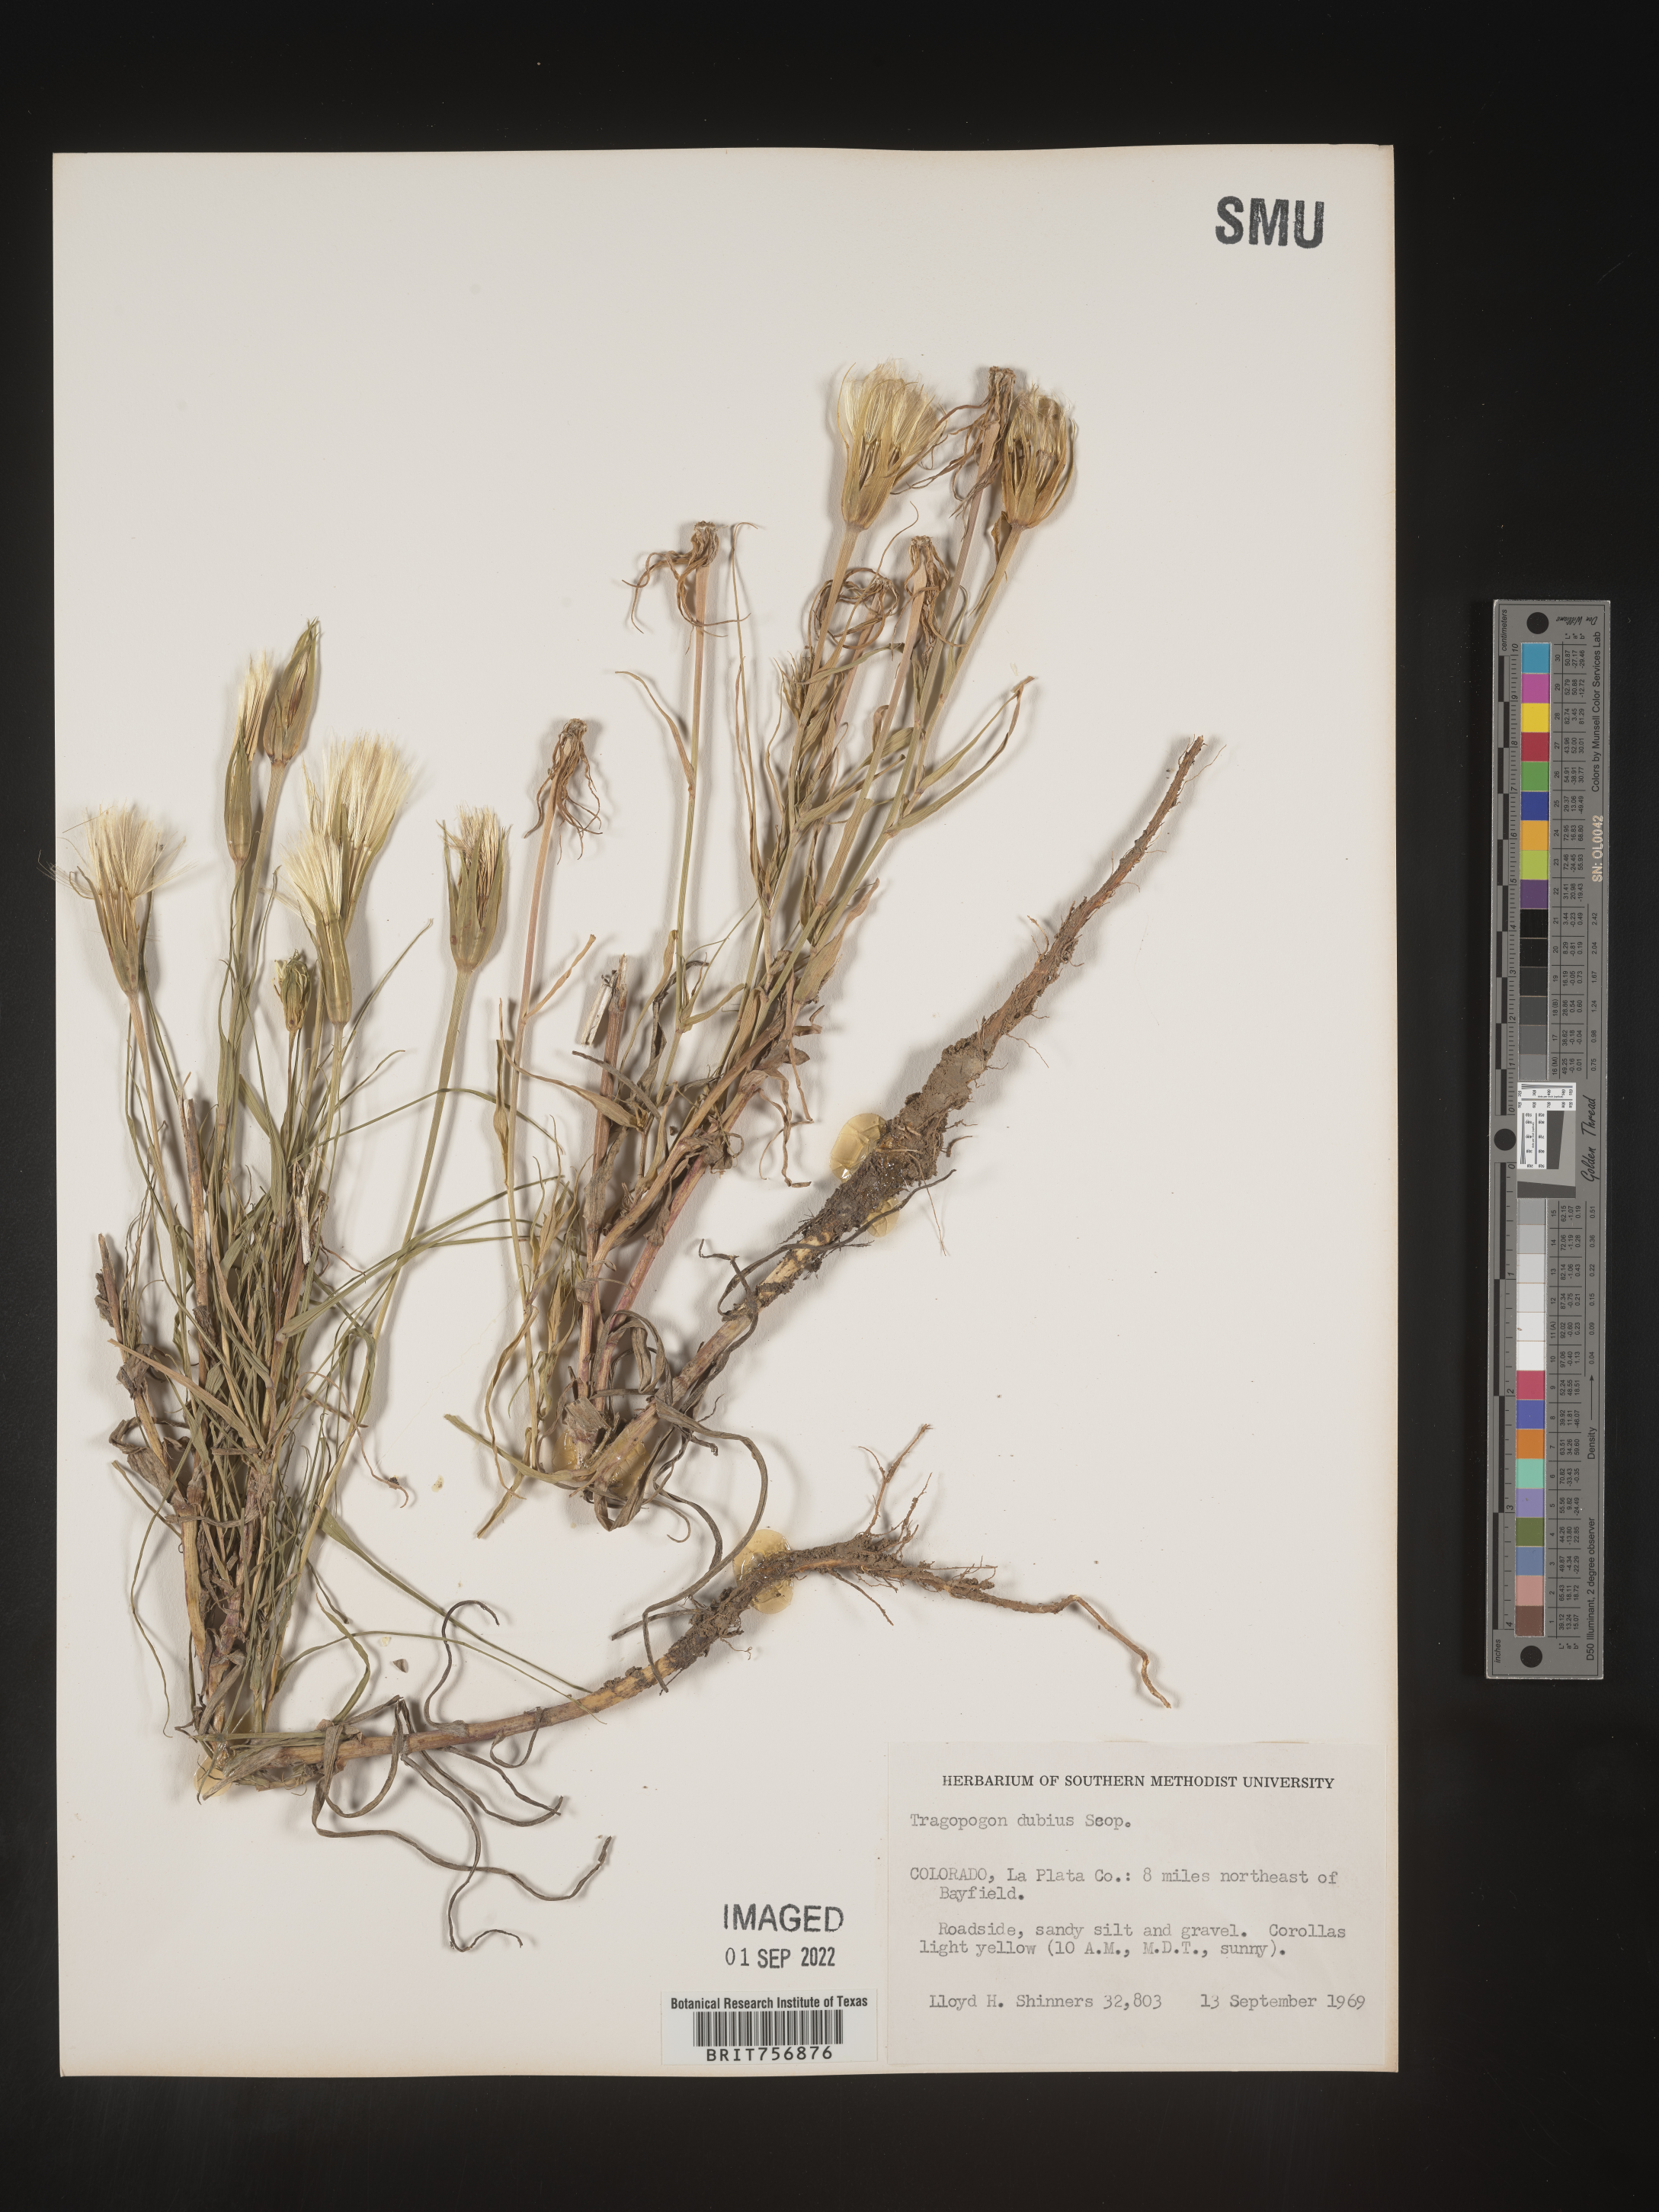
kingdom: Plantae
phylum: Tracheophyta
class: Magnoliopsida
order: Asterales
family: Asteraceae
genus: Tragopogon
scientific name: Tragopogon dubius
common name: Yellow salsify
